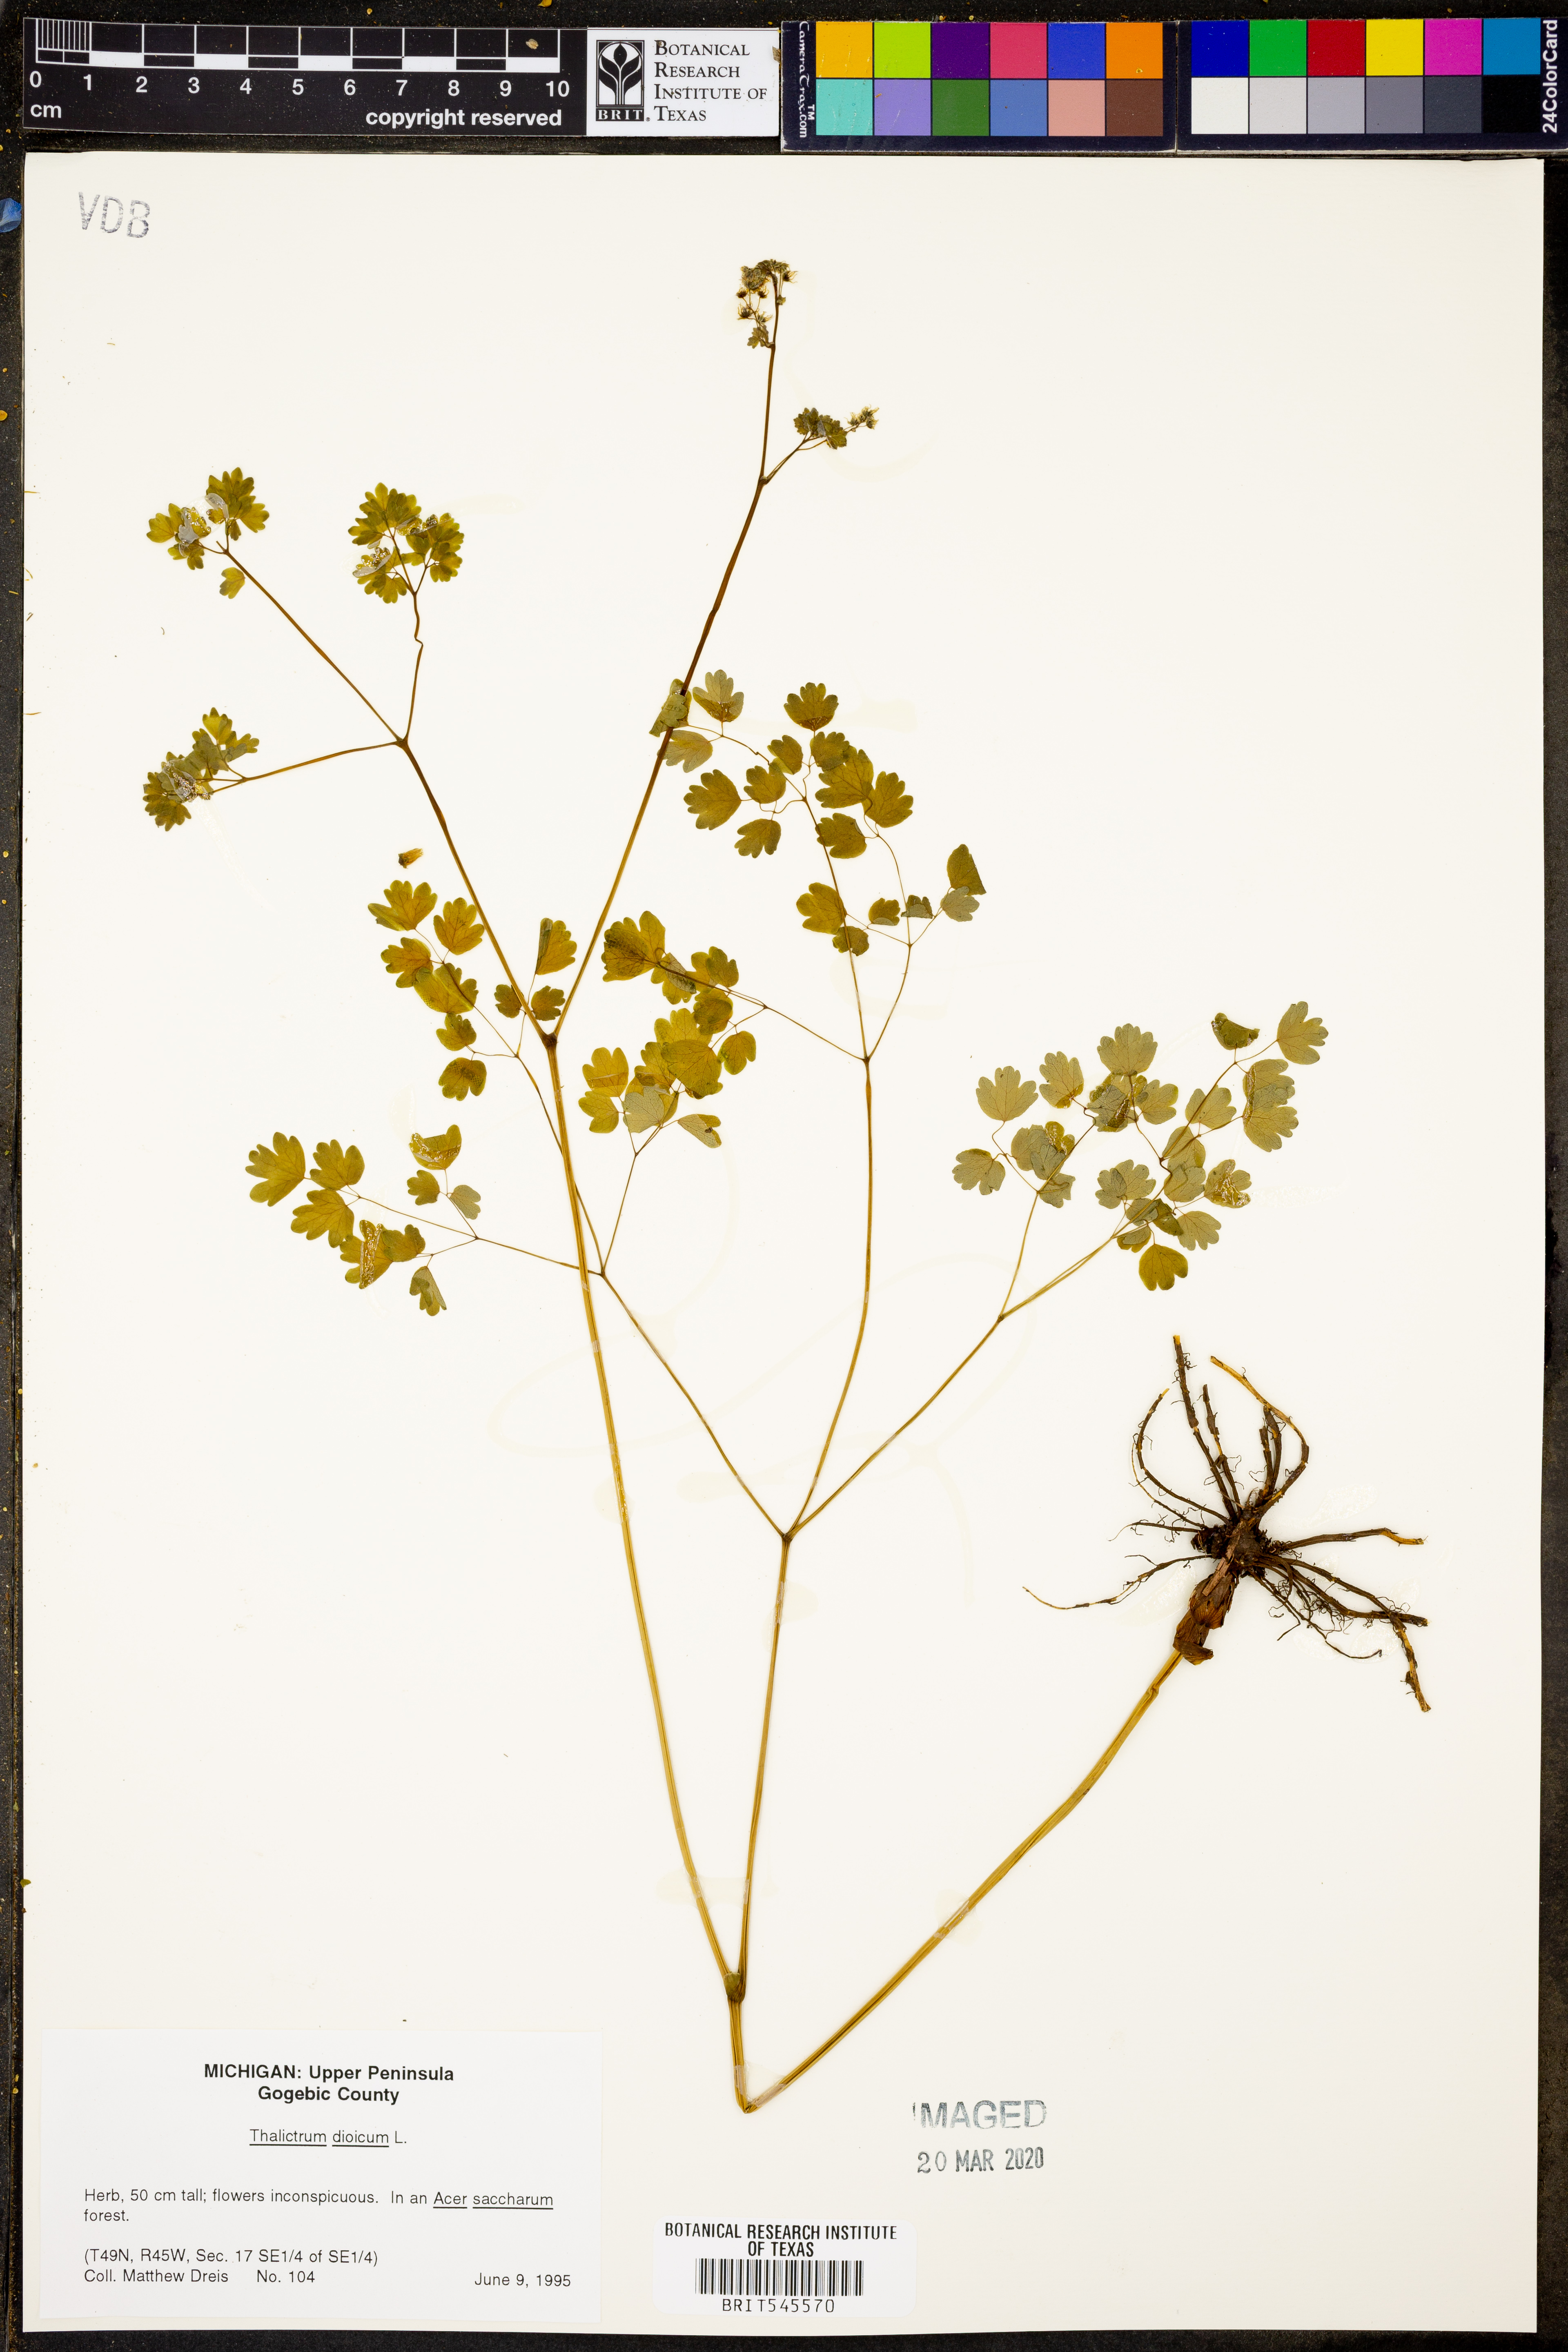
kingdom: Plantae
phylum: Tracheophyta
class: Magnoliopsida
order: Ranunculales
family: Ranunculaceae
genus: Thalictrum
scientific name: Thalictrum dioicum
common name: Early meadow-rue
